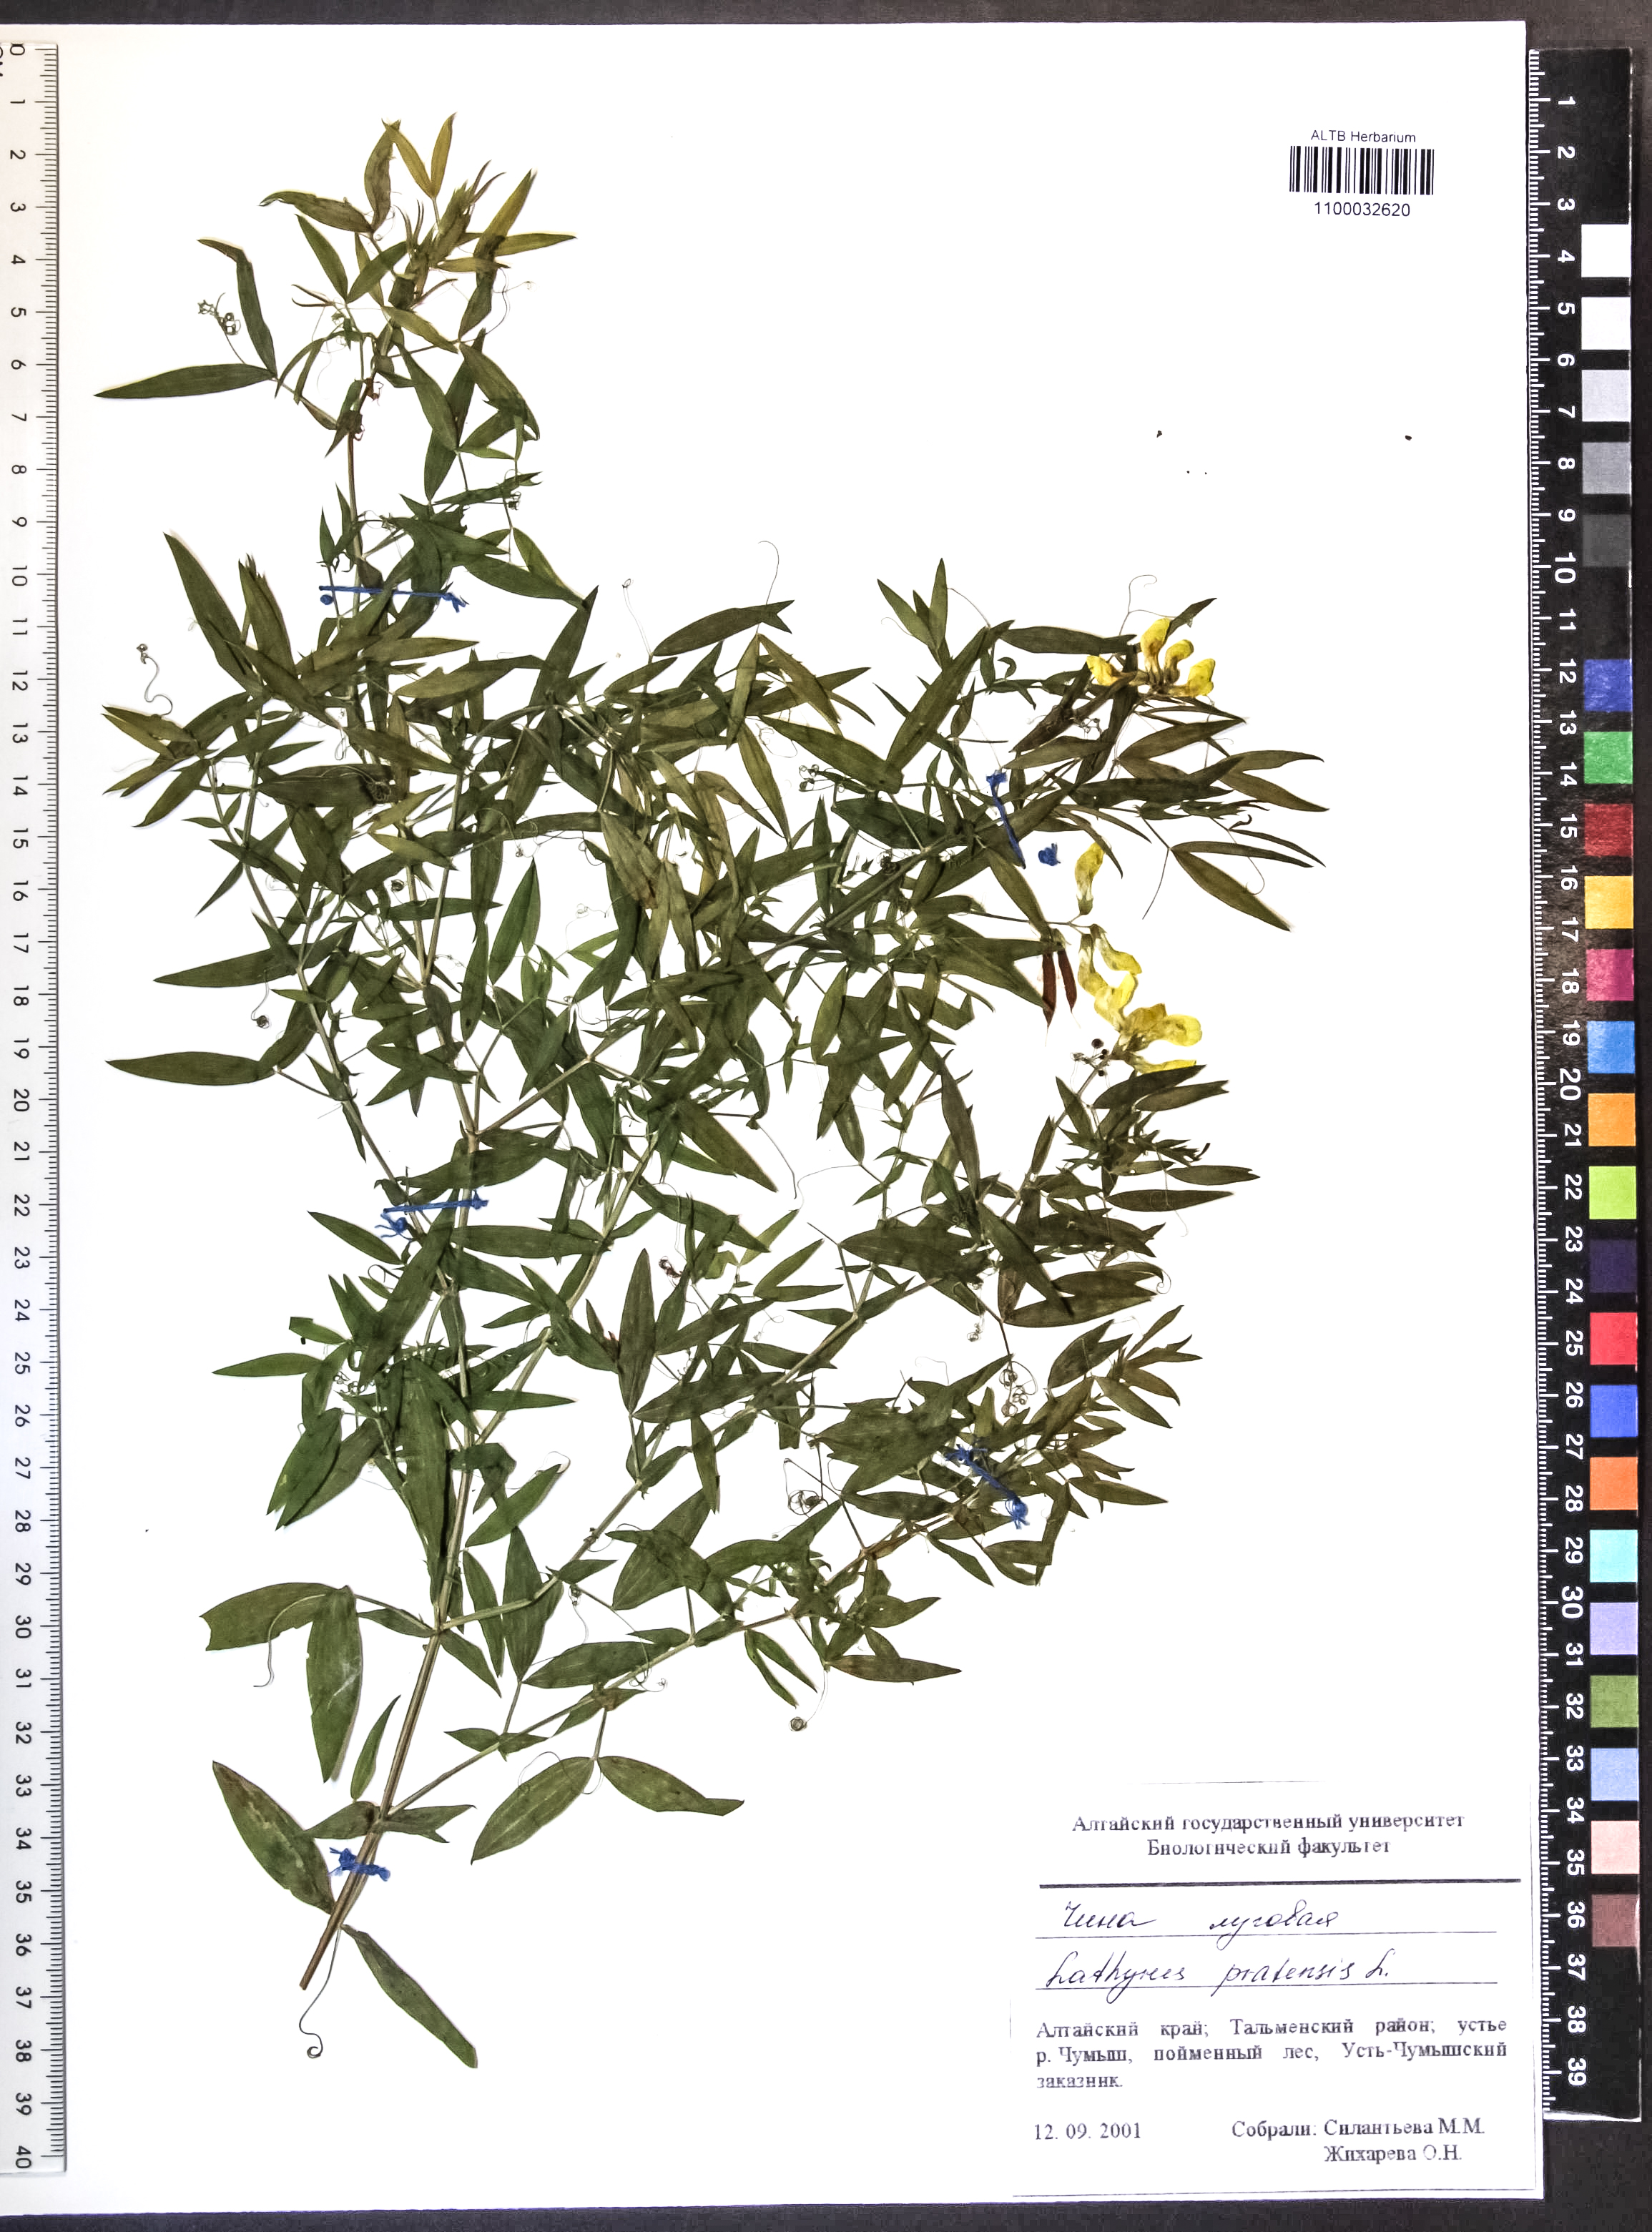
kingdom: Plantae
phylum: Tracheophyta
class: Magnoliopsida
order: Fabales
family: Fabaceae
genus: Lathyrus
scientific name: Lathyrus pratensis
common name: Meadow vetchling
